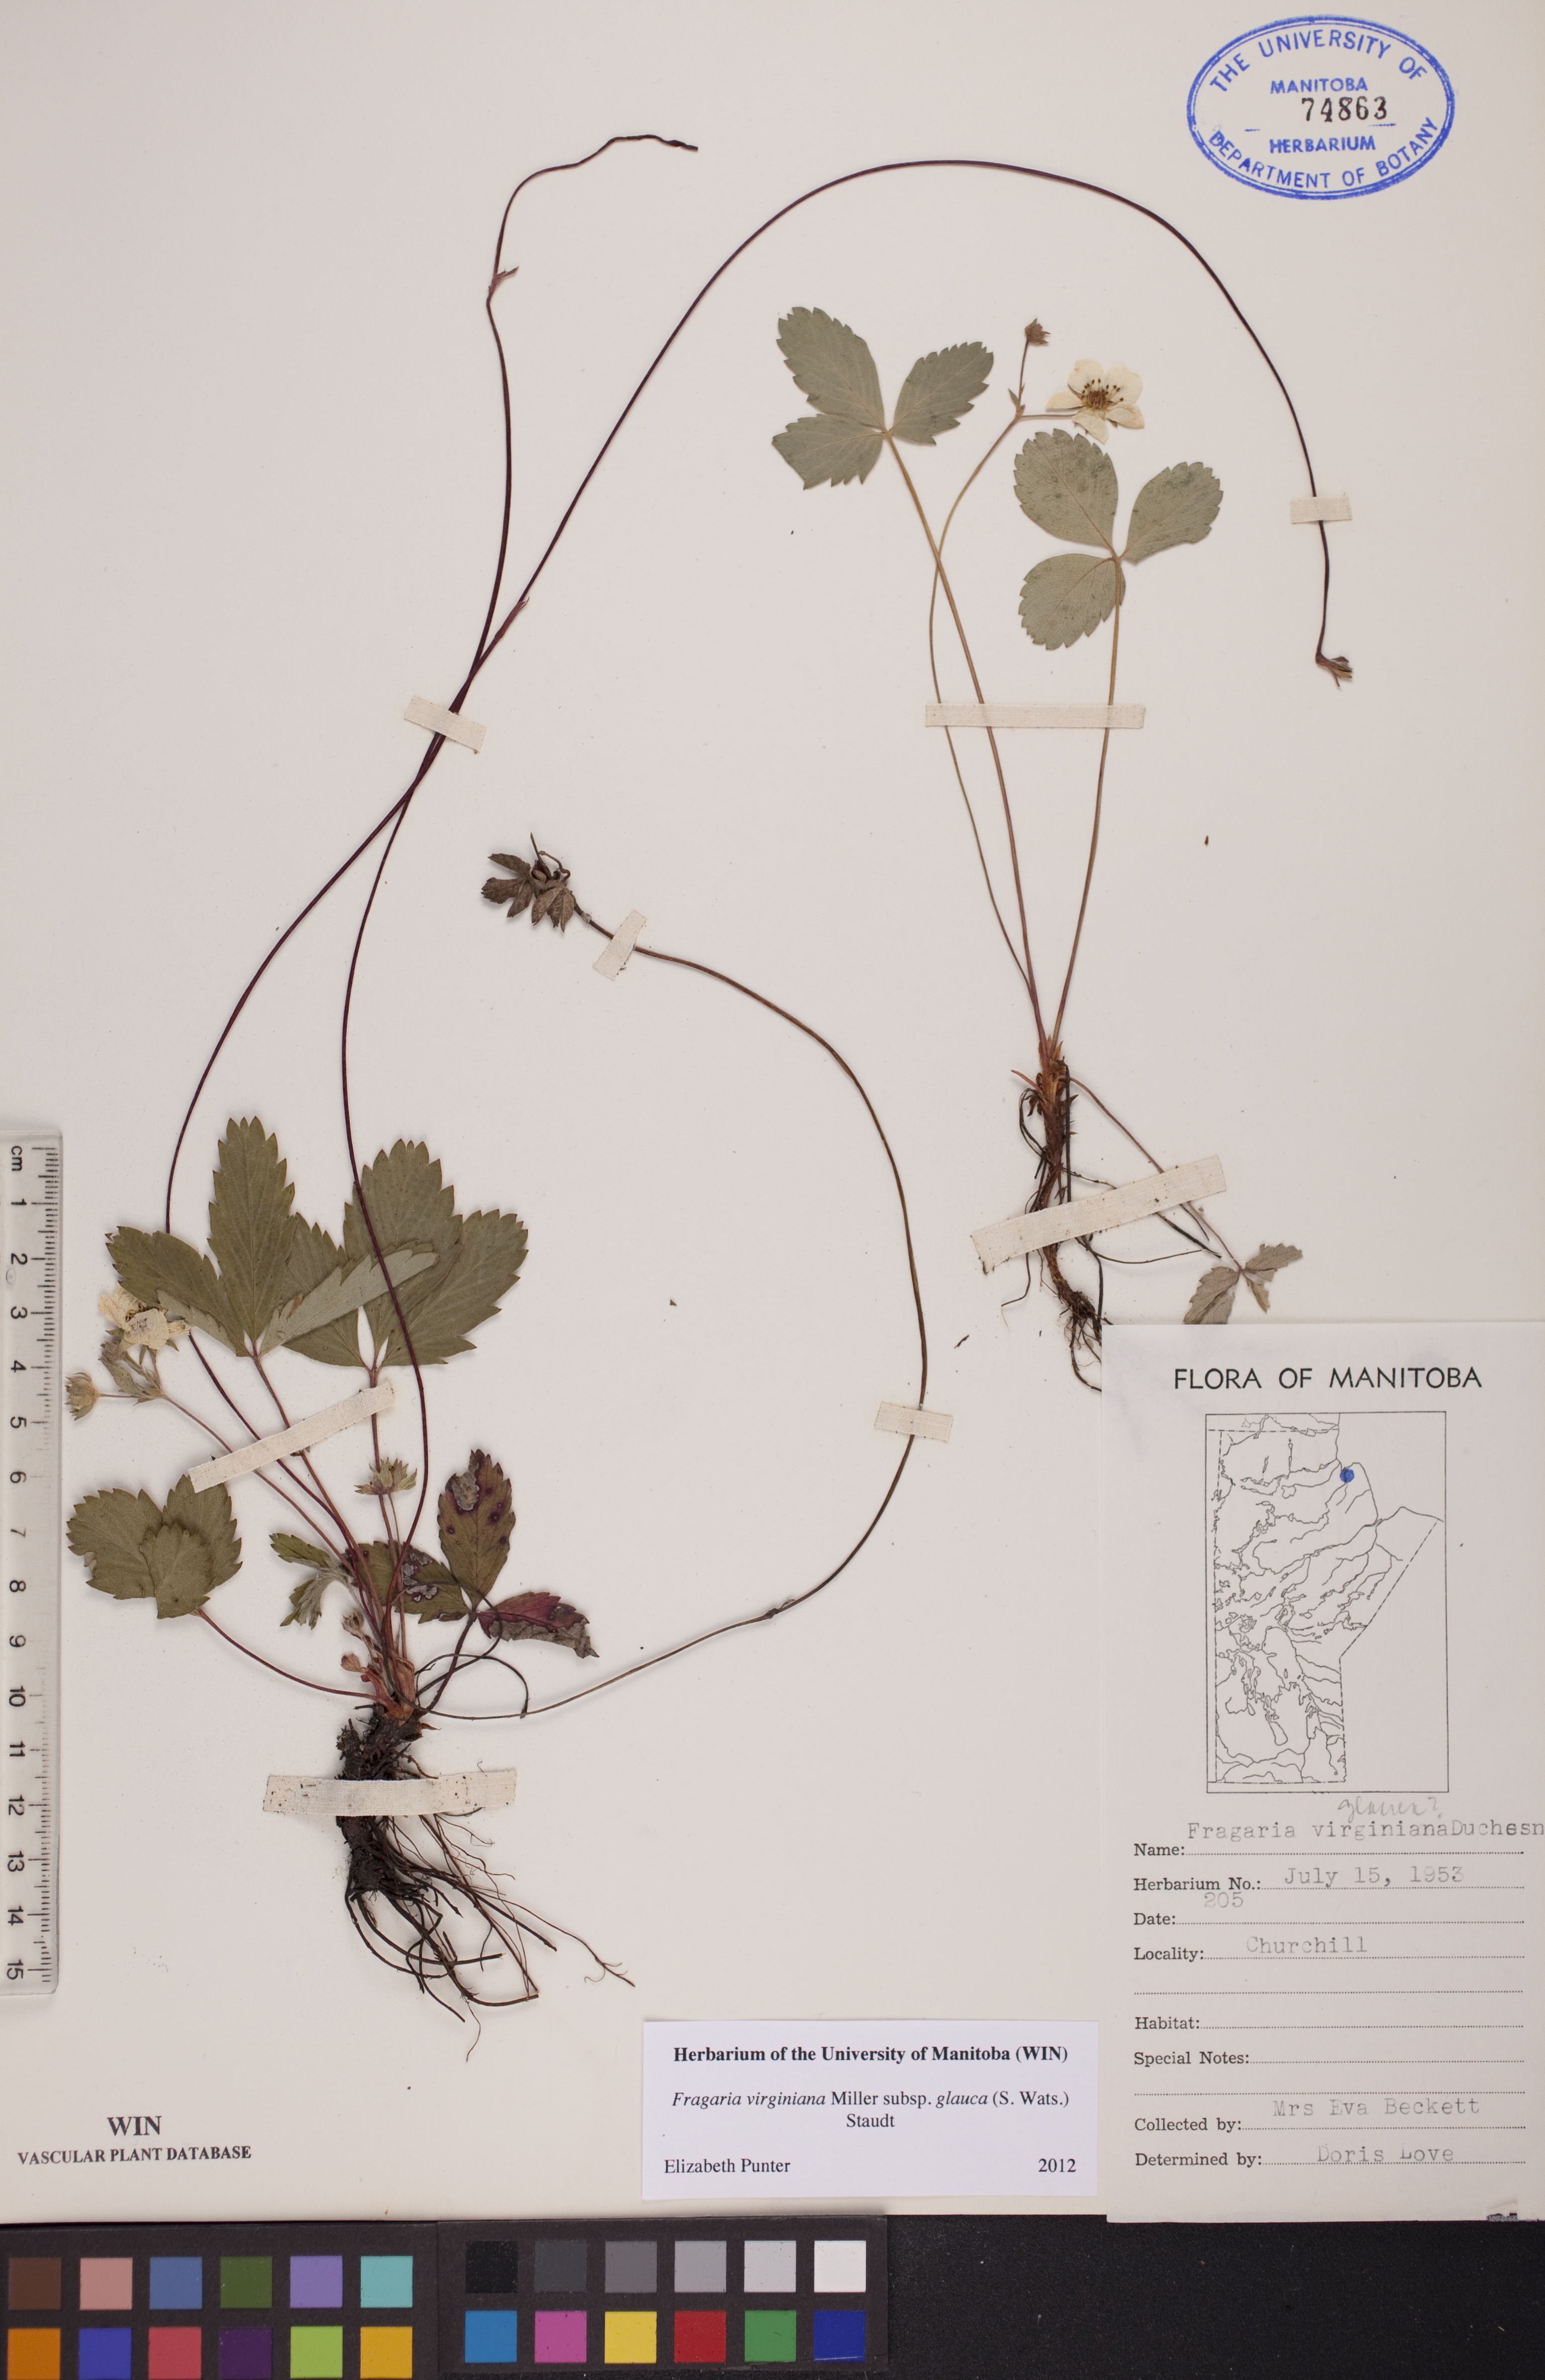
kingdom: Plantae
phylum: Tracheophyta
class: Magnoliopsida
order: Rosales
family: Rosaceae
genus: Fragaria
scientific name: Fragaria virginiana
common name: Thickleaved wild strawberry
